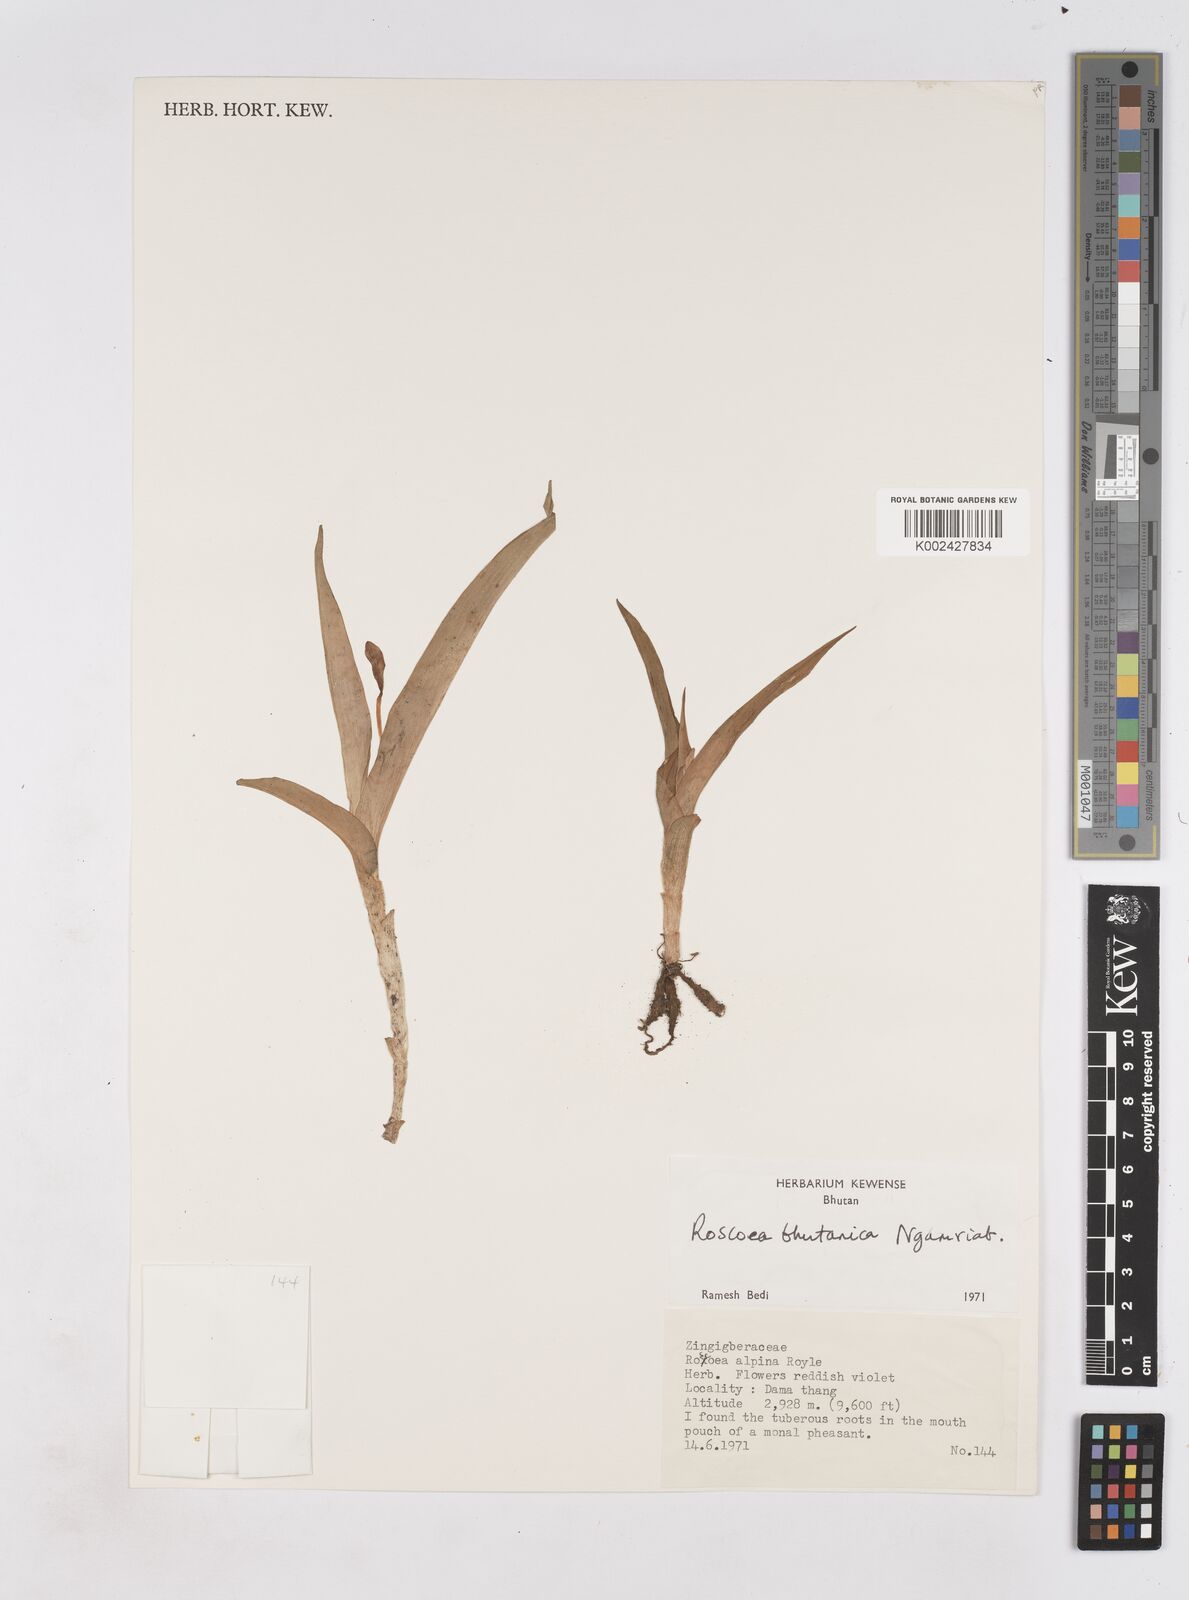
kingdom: Plantae
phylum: Tracheophyta
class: Liliopsida
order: Zingiberales
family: Zingiberaceae
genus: Roscoea
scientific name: Roscoea bhutanica
